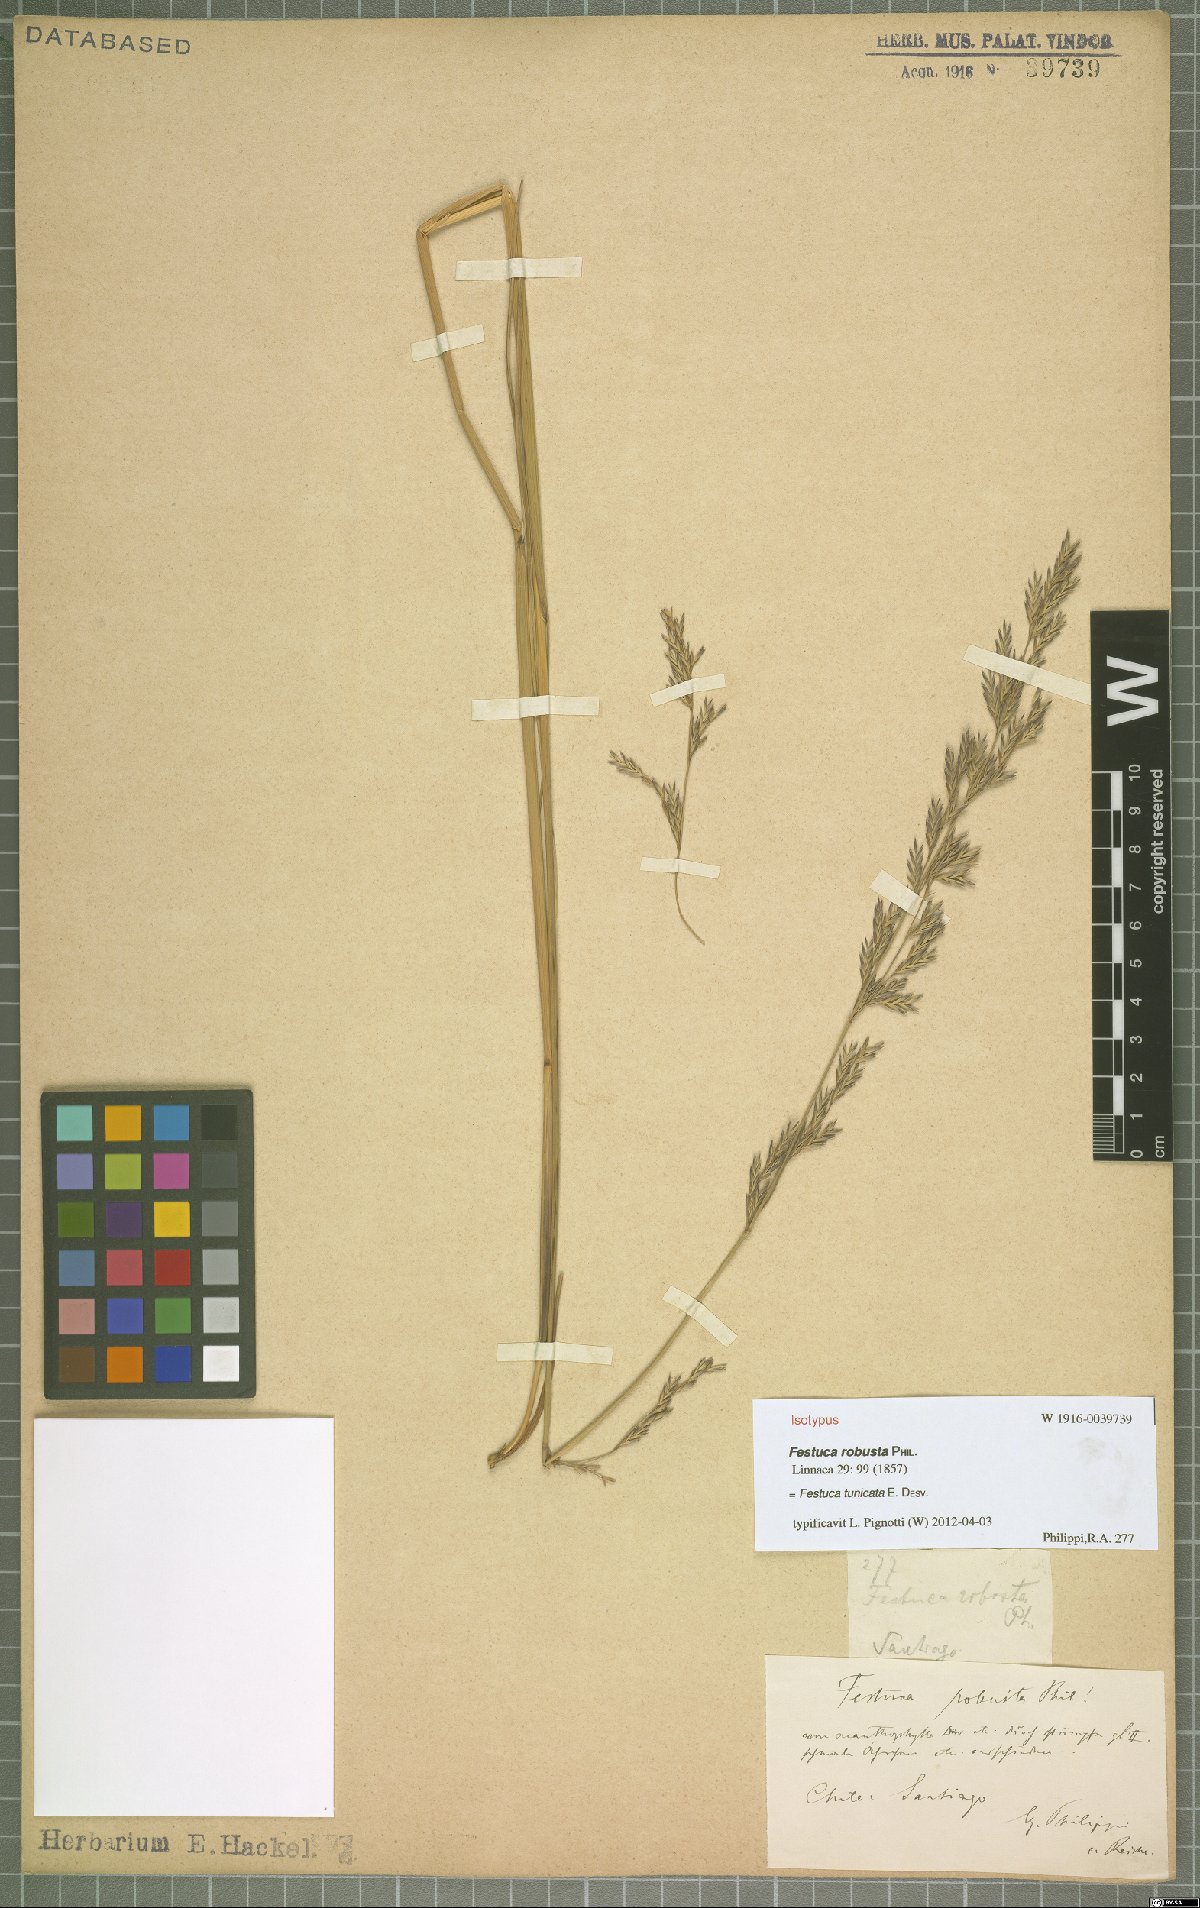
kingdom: Plantae
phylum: Tracheophyta
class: Liliopsida
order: Poales
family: Poaceae
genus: Festuca
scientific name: Festuca acanthophylla
